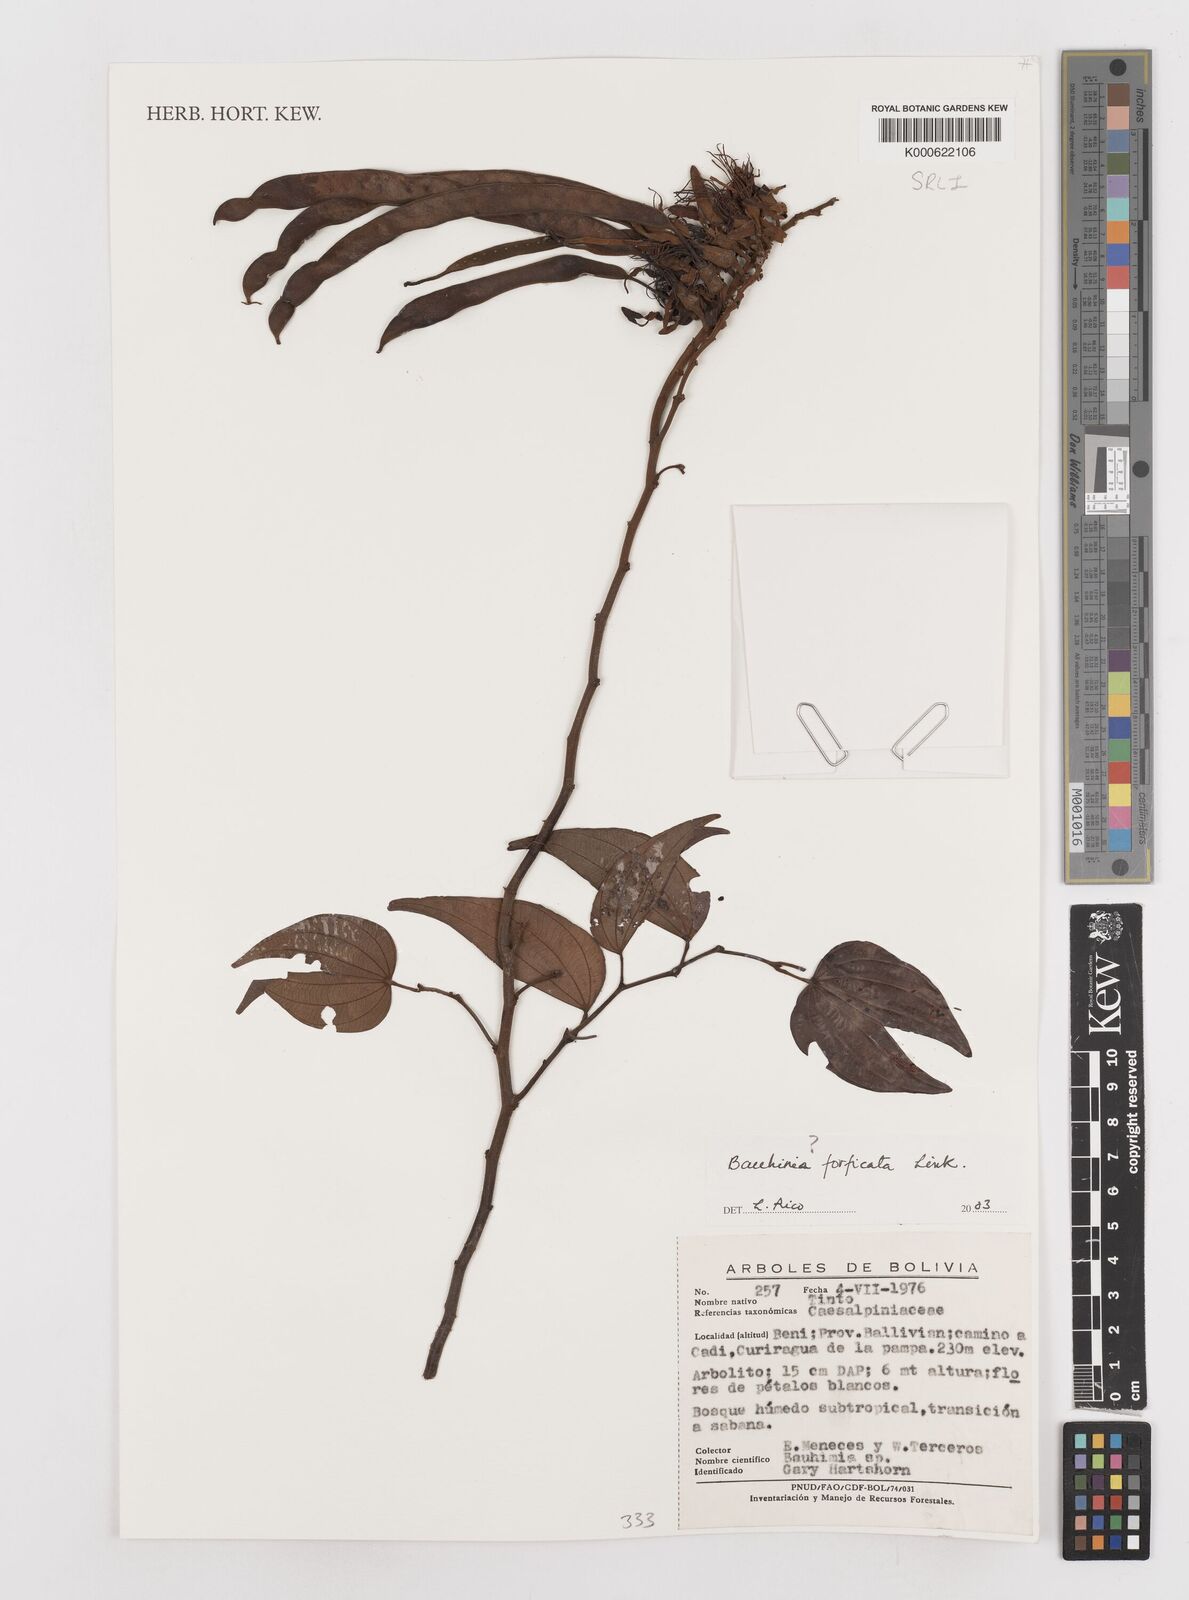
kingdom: Plantae
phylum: Tracheophyta
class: Magnoliopsida
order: Fabales
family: Fabaceae
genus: Bauhinia
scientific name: Bauhinia forficata
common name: Orchid tree
